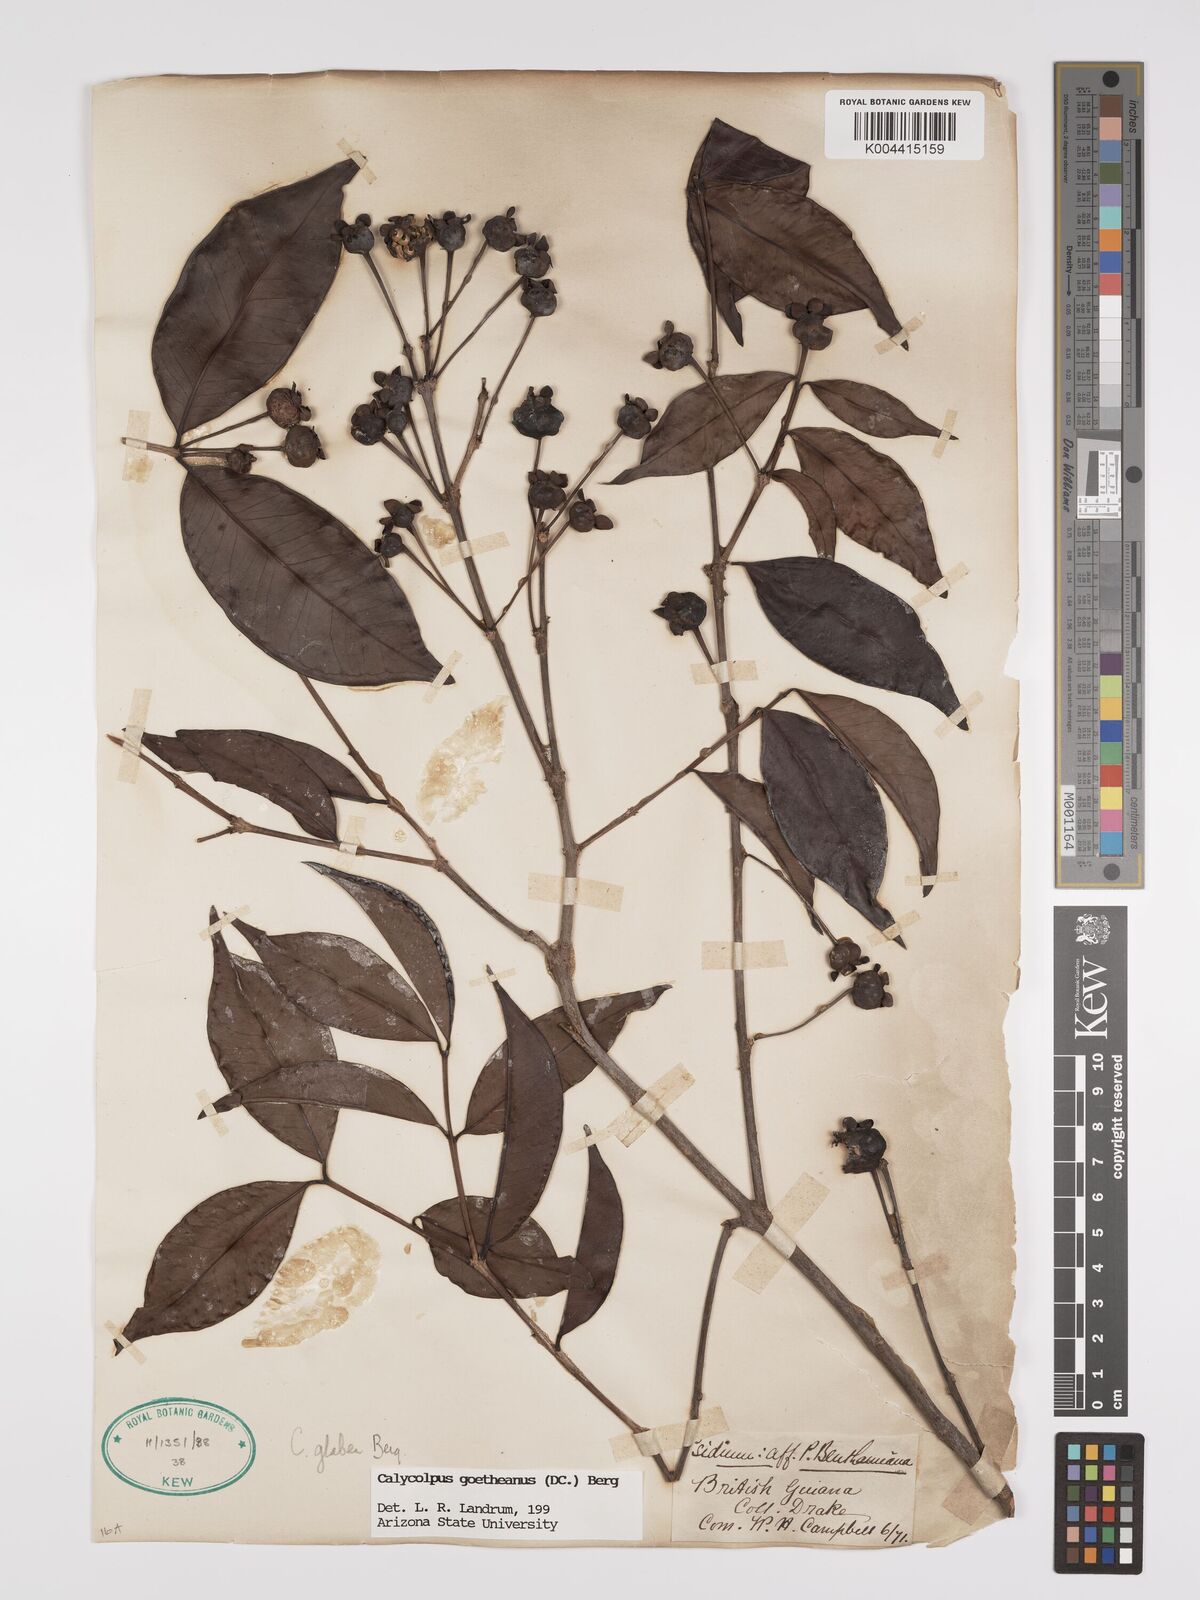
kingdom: Plantae
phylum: Tracheophyta
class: Magnoliopsida
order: Myrtales
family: Myrtaceae
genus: Calycolpus
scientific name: Calycolpus goetheanus
